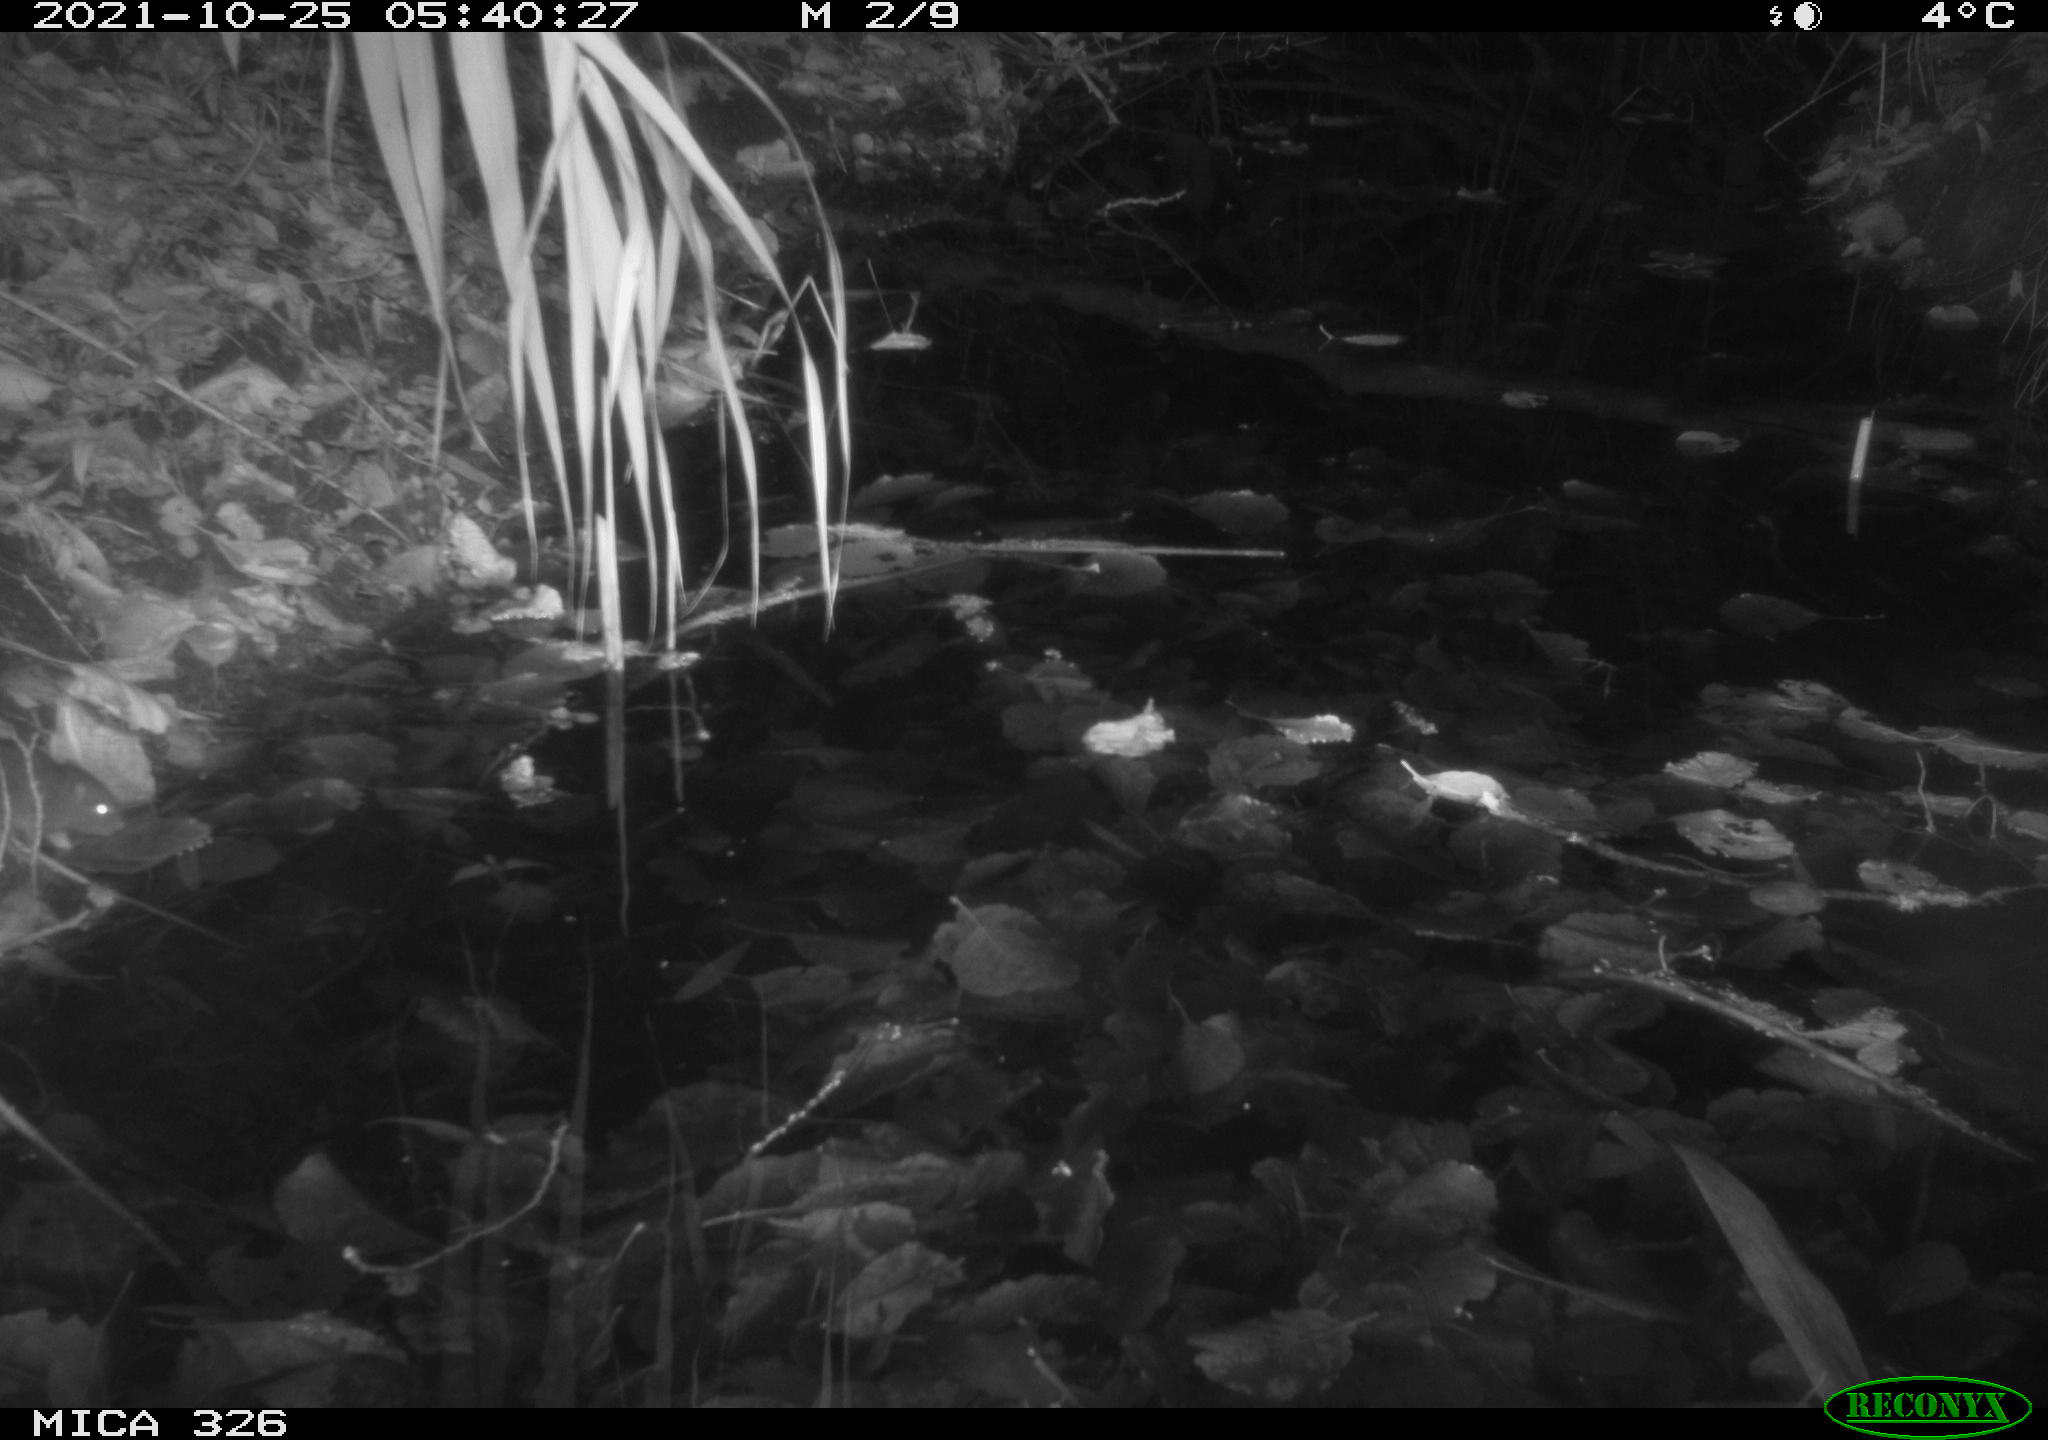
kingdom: Animalia
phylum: Chordata
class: Mammalia
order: Rodentia
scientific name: Rodentia
